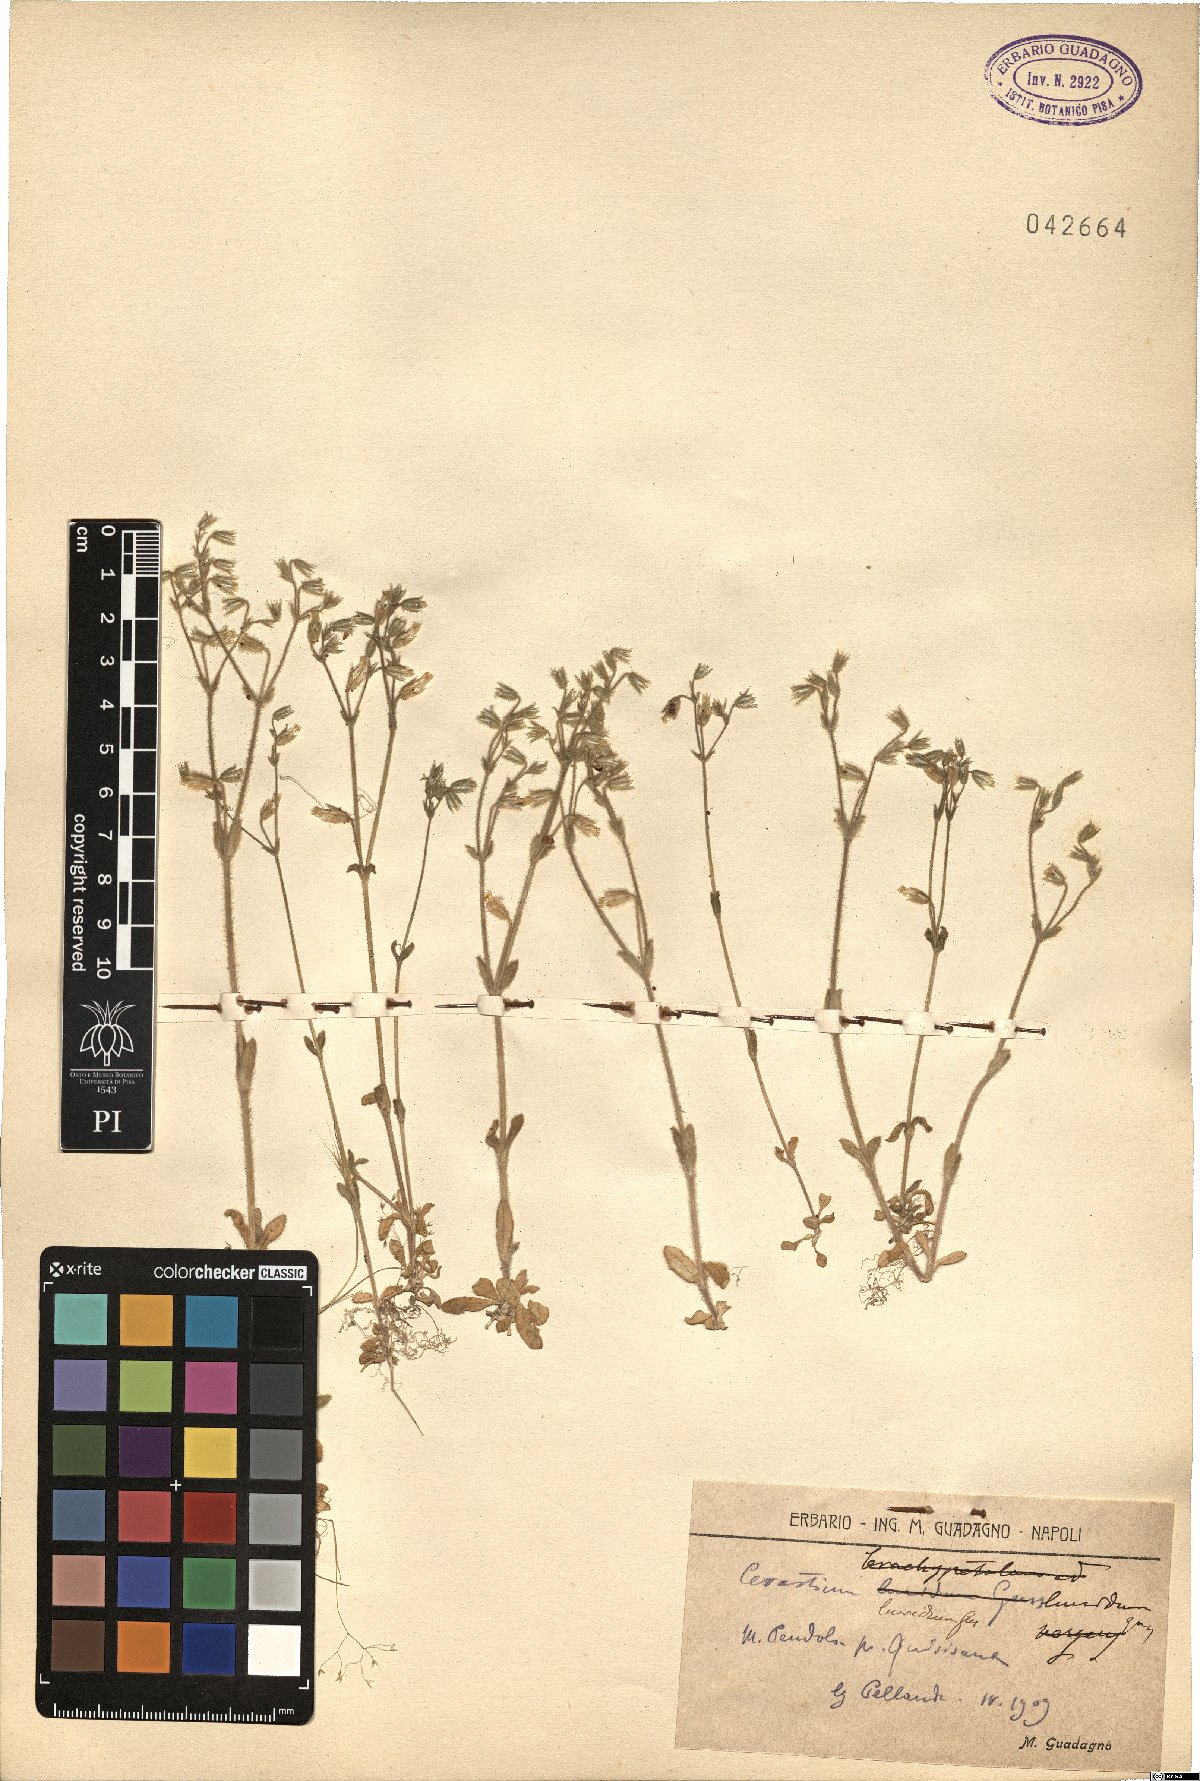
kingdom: Plantae
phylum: Tracheophyta
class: Magnoliopsida
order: Caryophyllales
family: Caryophyllaceae
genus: Cerastium
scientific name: Cerastium brachypetalum
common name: Grey mouse-ear
